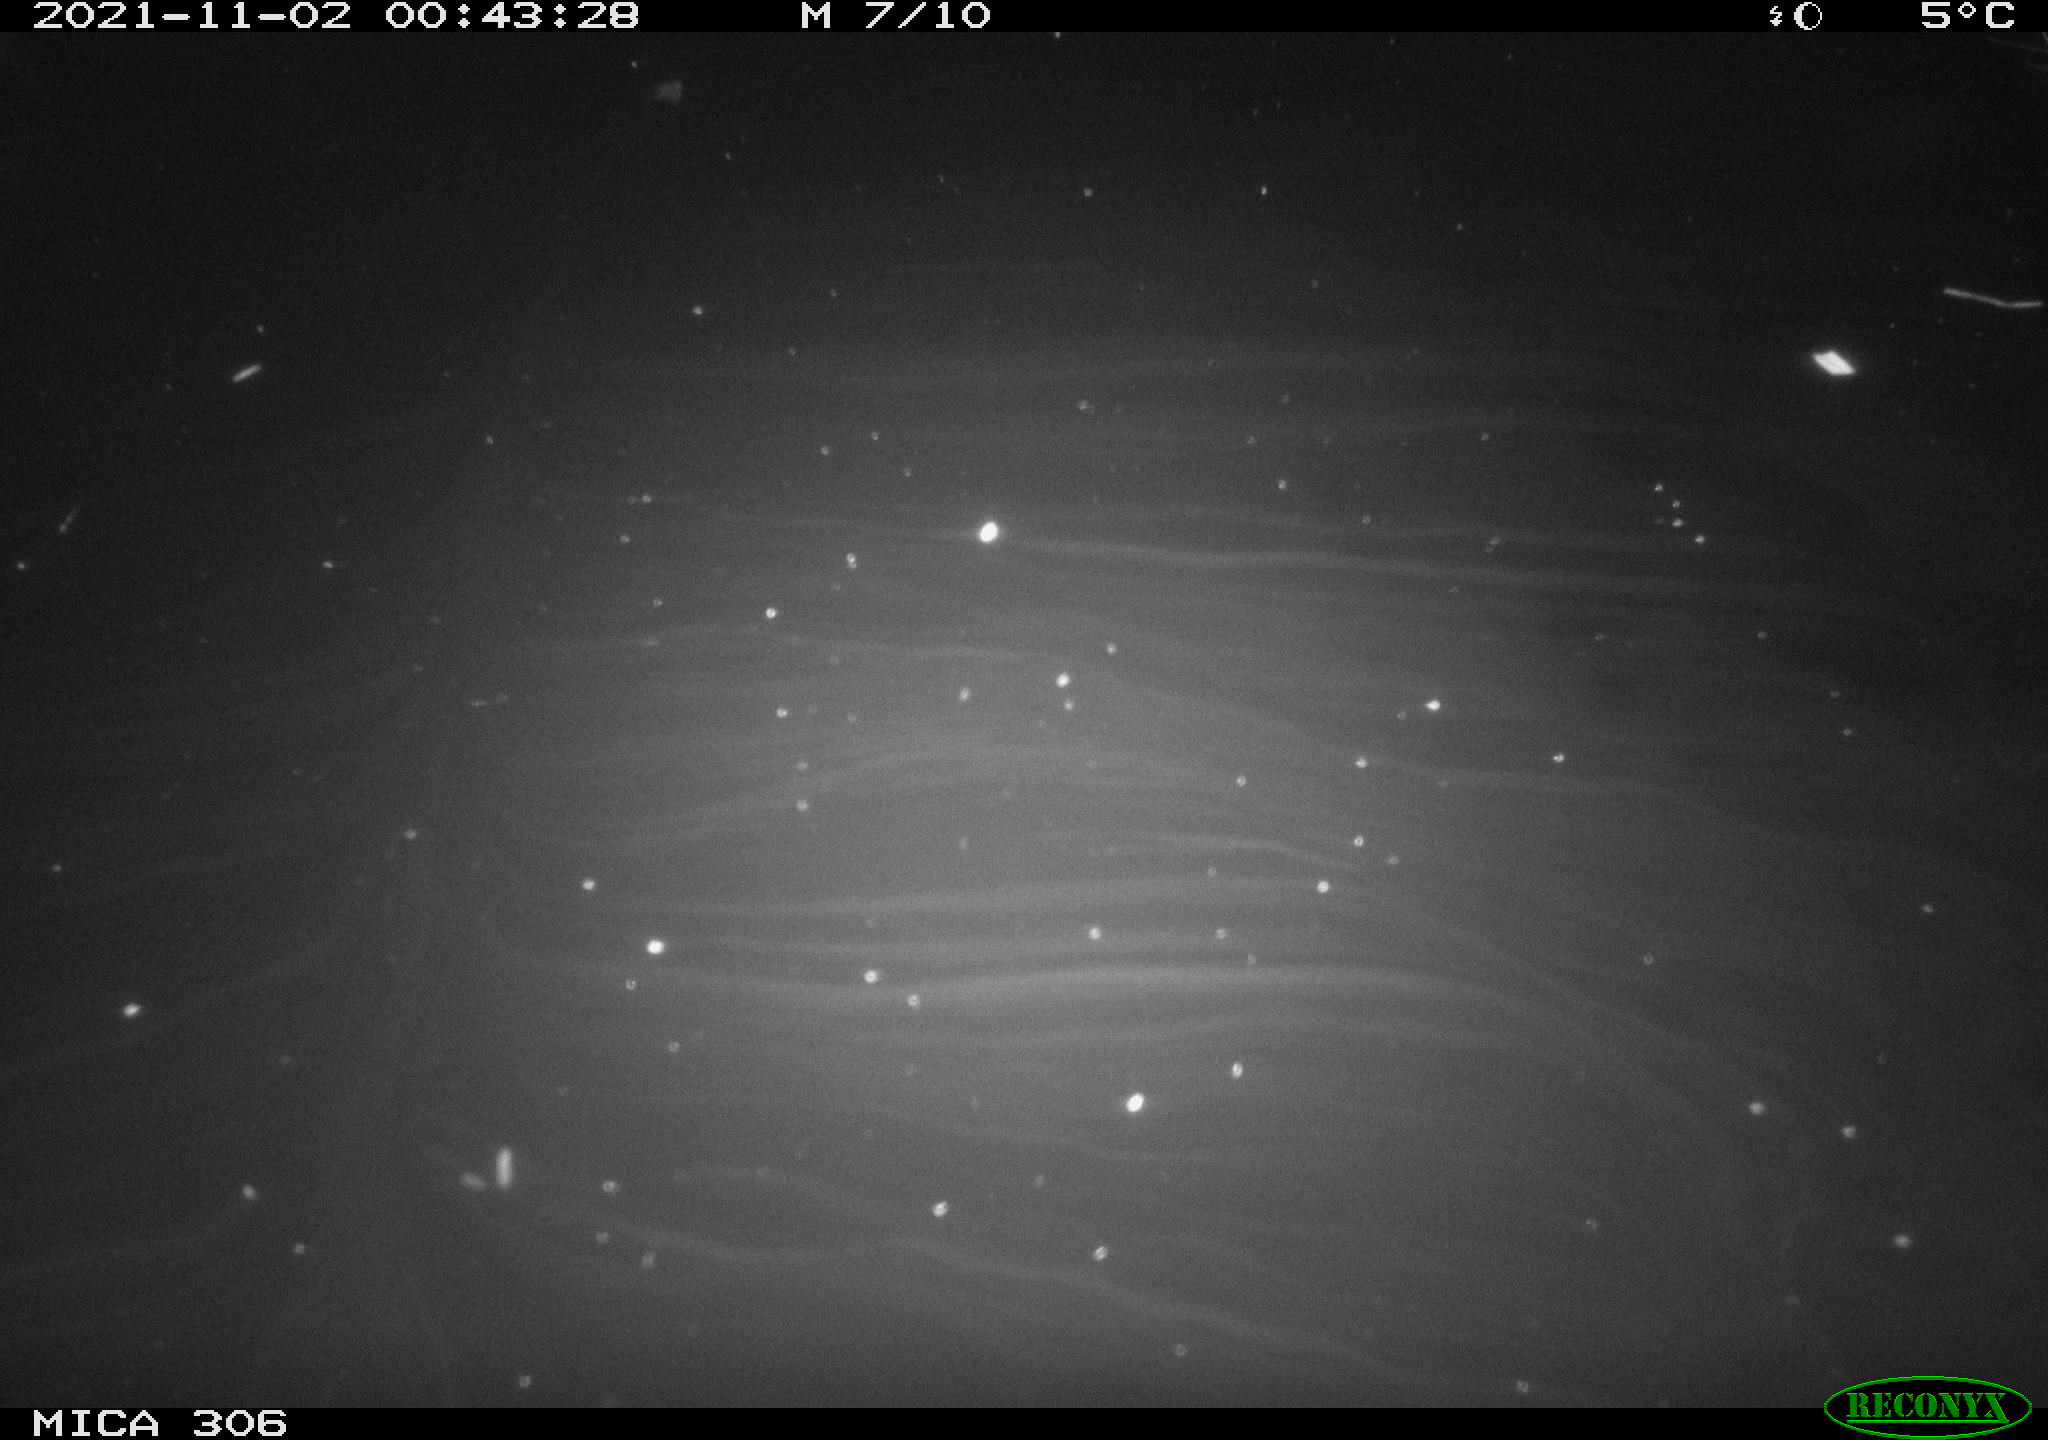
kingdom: Animalia
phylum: Chordata
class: Mammalia
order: Rodentia
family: Muridae
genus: Rattus
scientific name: Rattus norvegicus
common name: Brown rat
